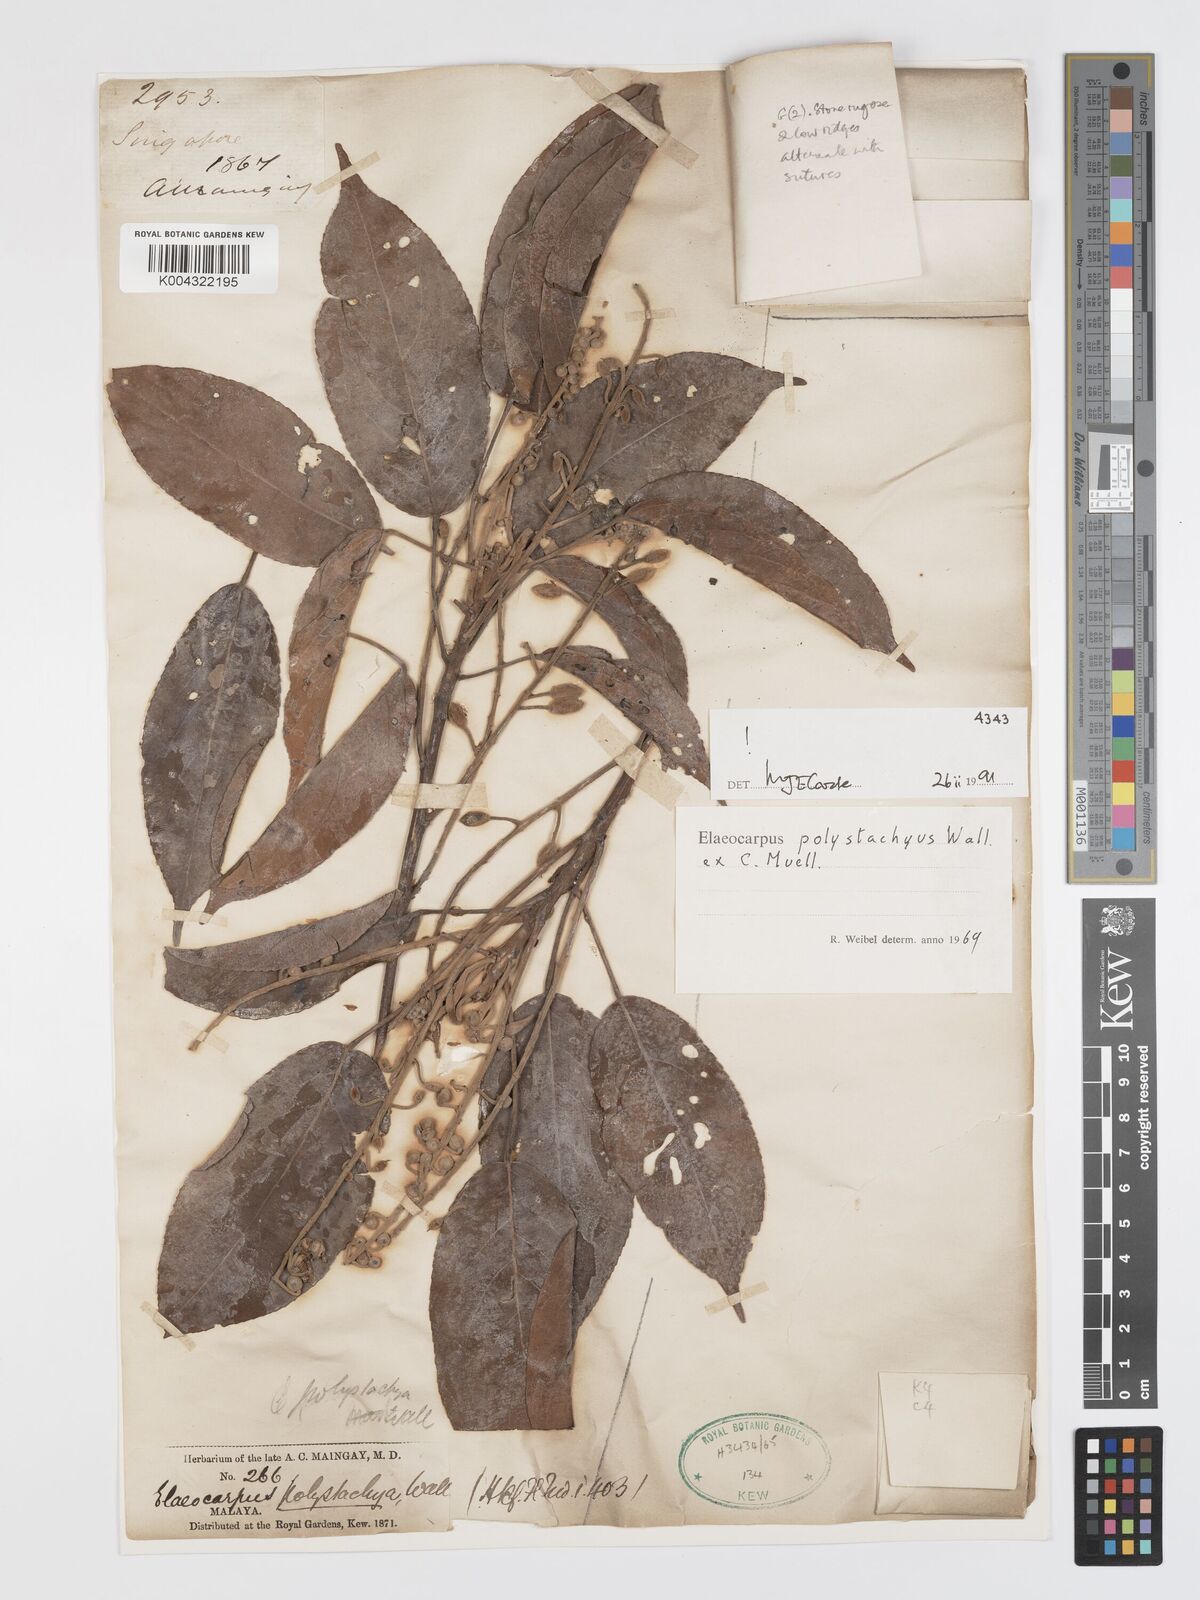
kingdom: Plantae
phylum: Tracheophyta
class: Magnoliopsida
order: Oxalidales
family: Elaeocarpaceae
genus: Elaeocarpus
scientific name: Elaeocarpus polystachyus
